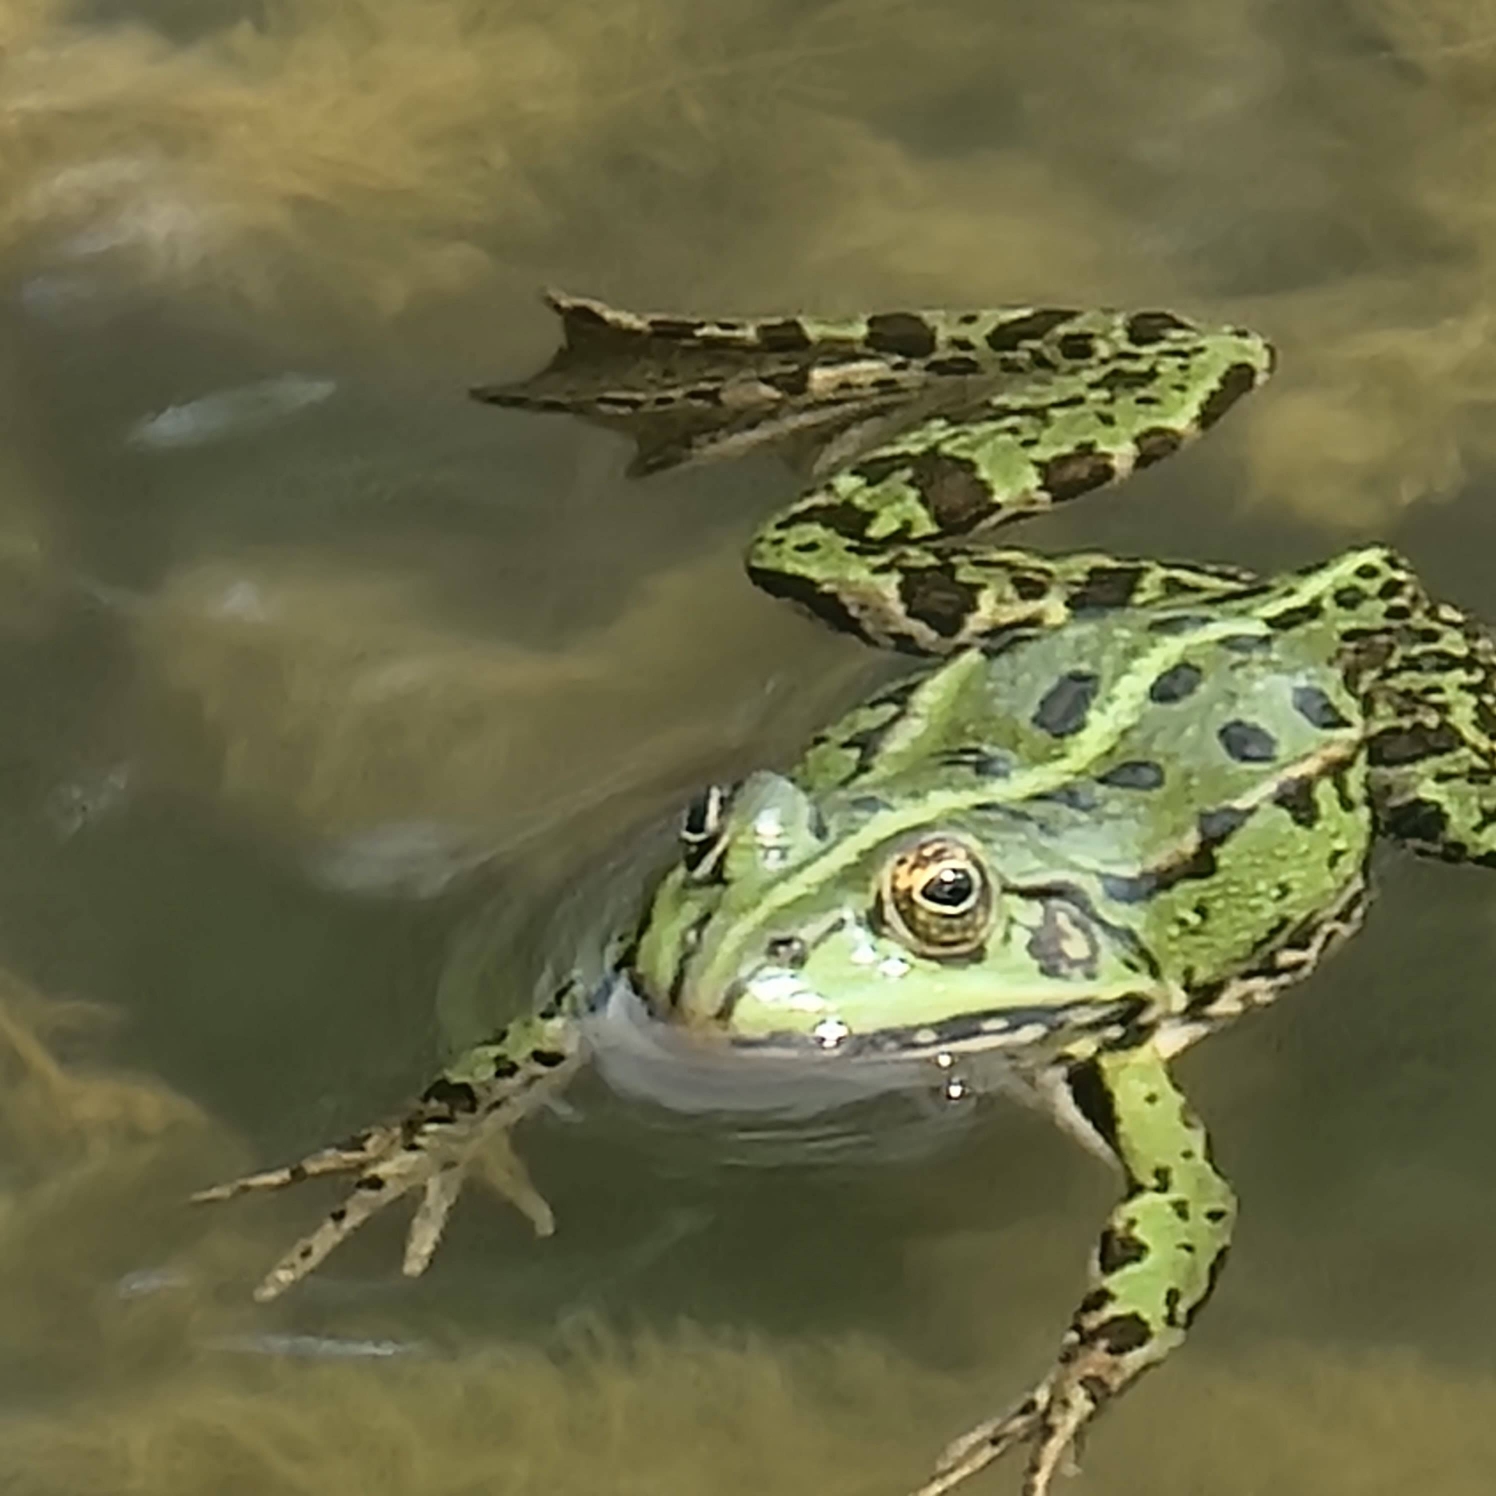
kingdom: Animalia
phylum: Chordata
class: Amphibia
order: Anura
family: Ranidae
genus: Pelophylax
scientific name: Pelophylax
